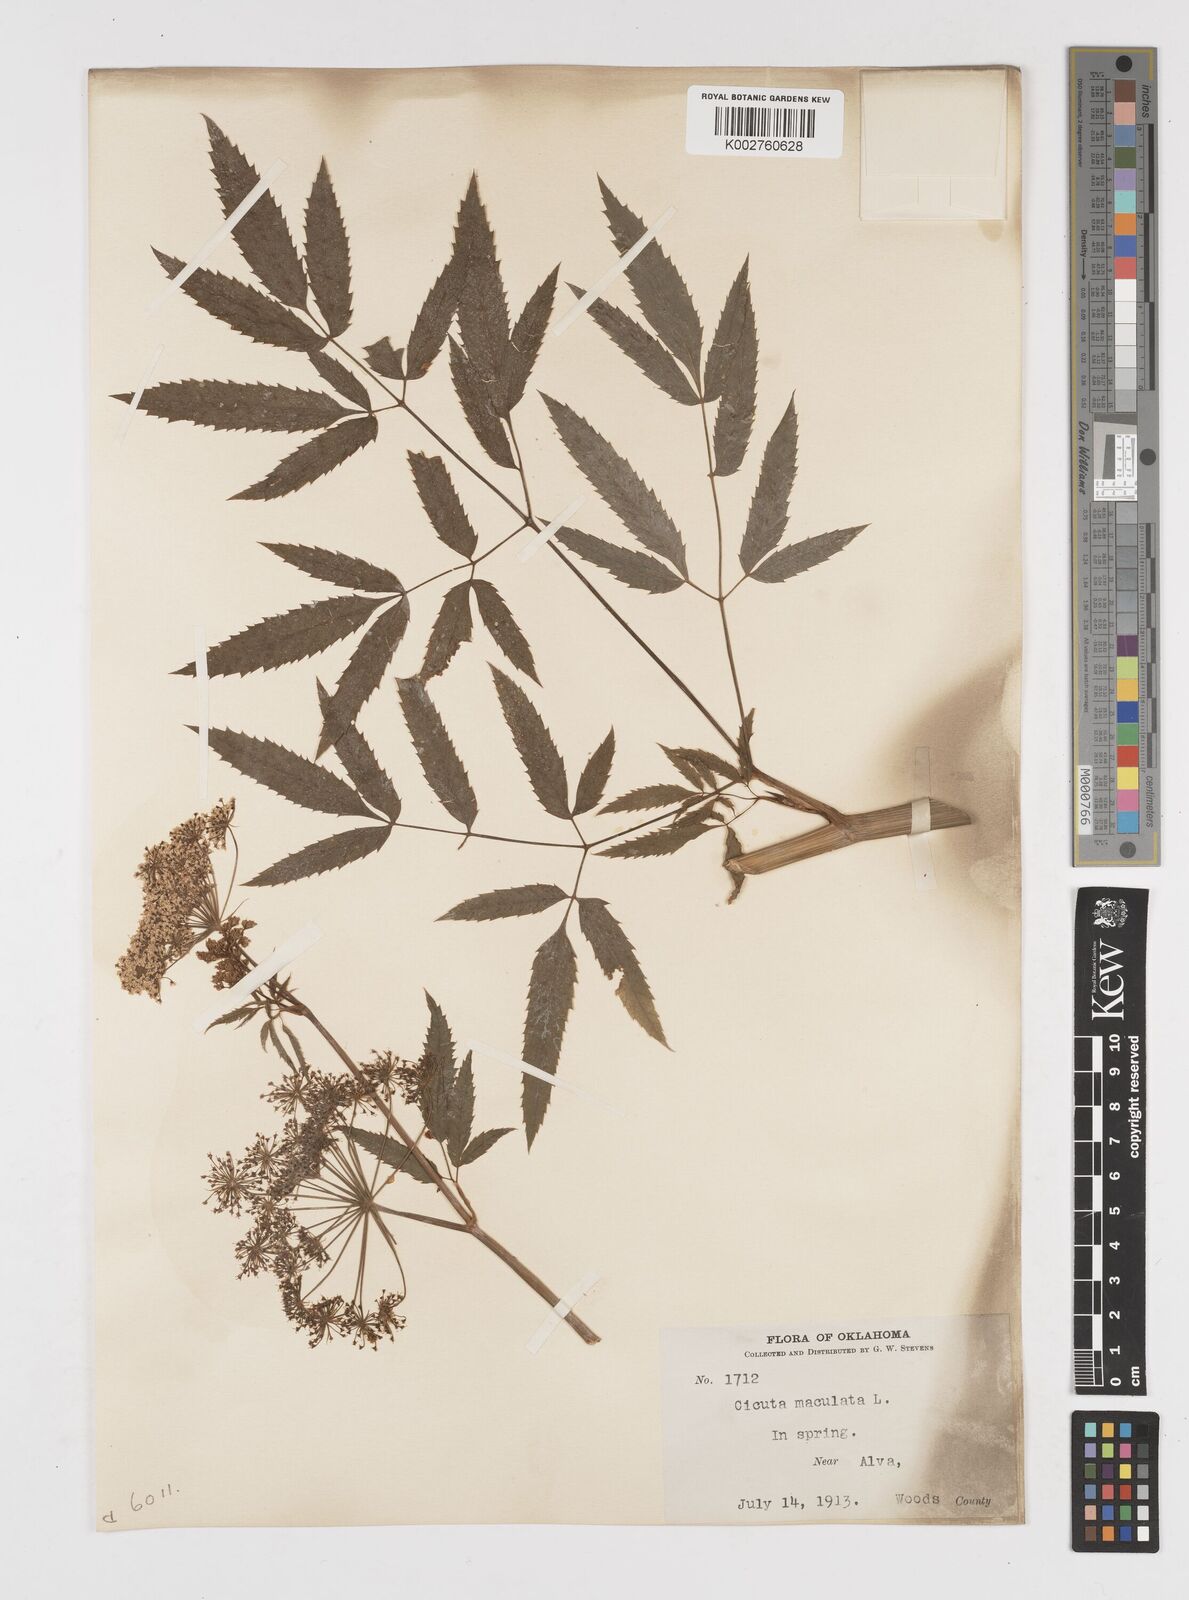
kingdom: Plantae
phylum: Tracheophyta
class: Magnoliopsida
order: Apiales
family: Apiaceae
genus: Cicuta
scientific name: Cicuta maculata
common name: Spotted cowbane
